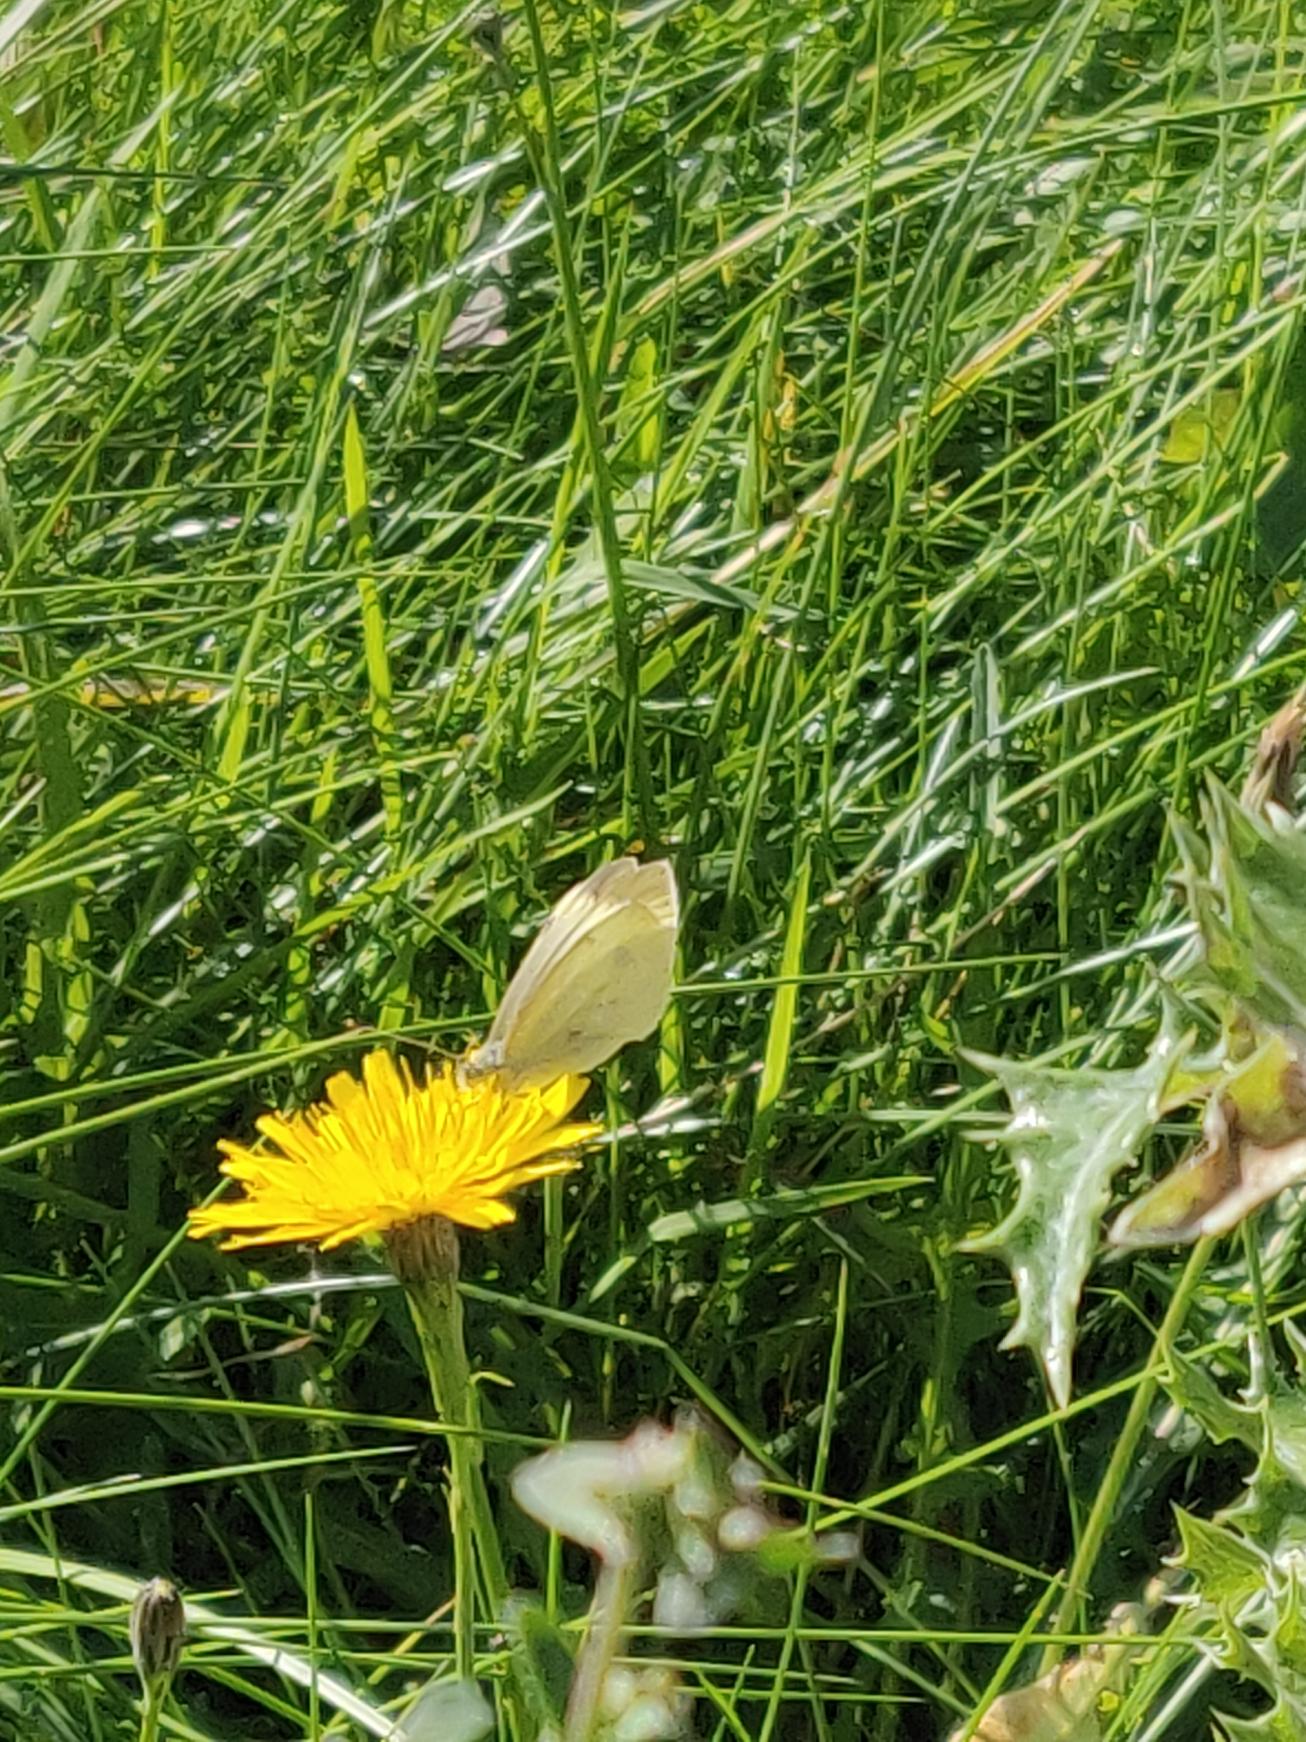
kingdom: Animalia
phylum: Arthropoda
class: Insecta
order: Lepidoptera
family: Pieridae
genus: Pieris
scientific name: Pieris rapae
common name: Lille kålsommerfugl
